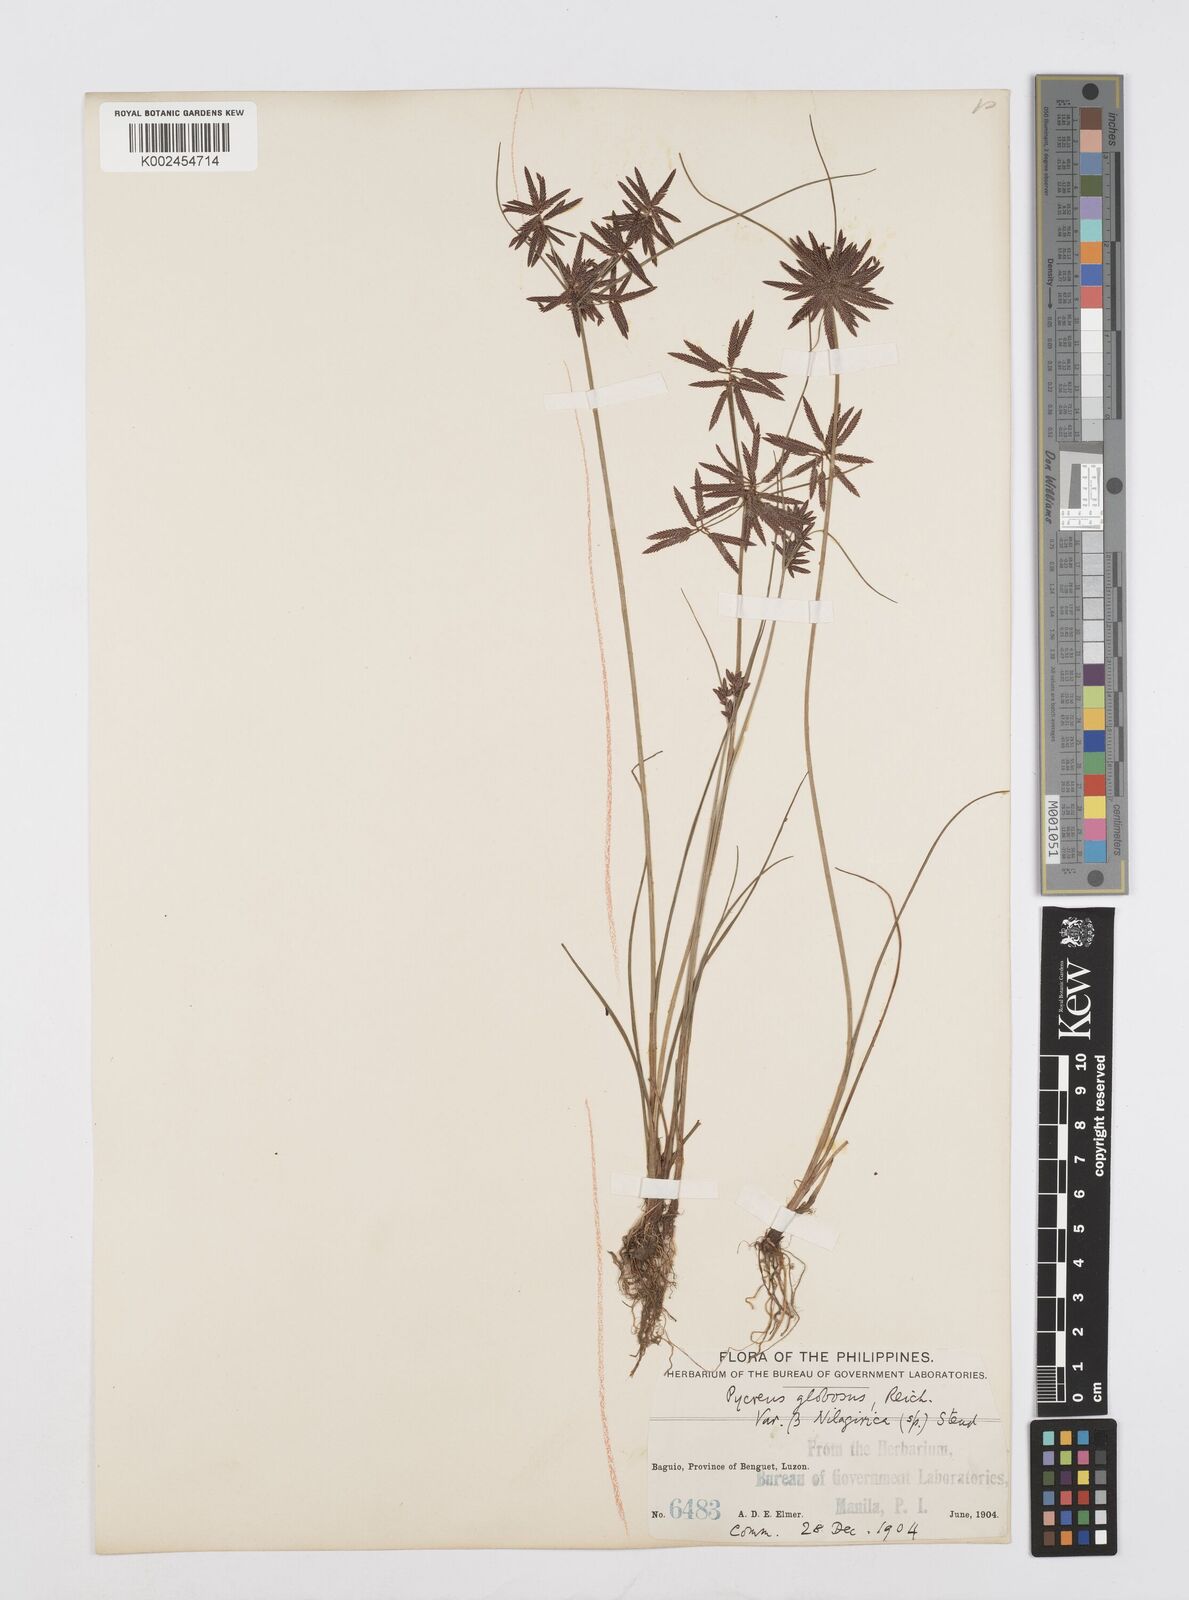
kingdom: Plantae
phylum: Tracheophyta
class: Liliopsida
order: Poales
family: Cyperaceae
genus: Cyperus
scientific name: Cyperus flavidus
